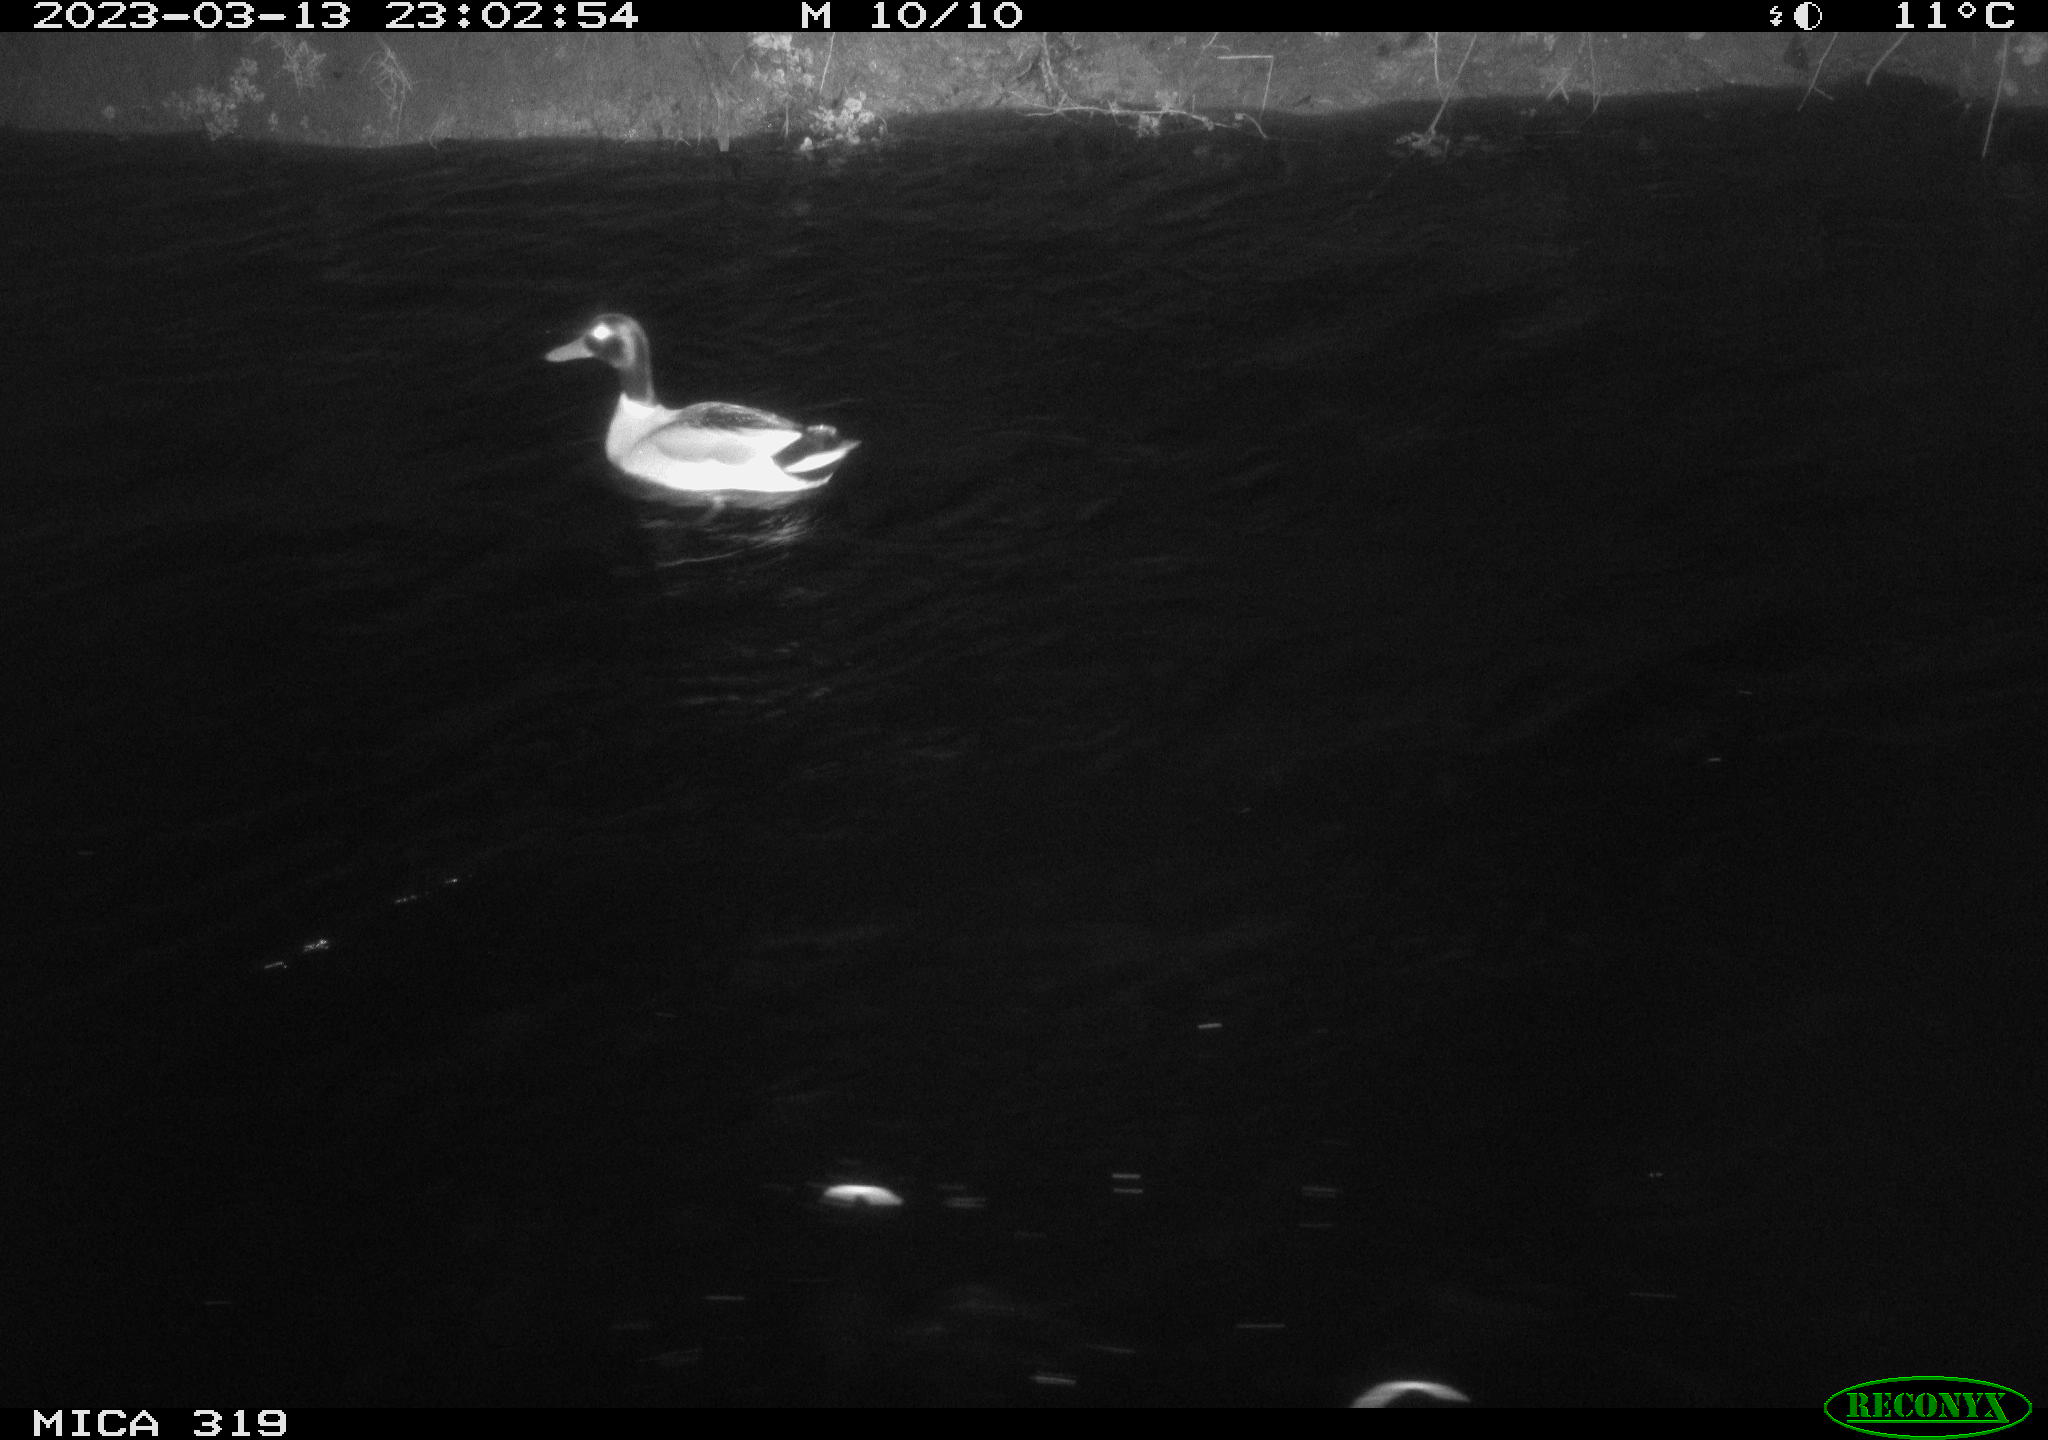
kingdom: Animalia
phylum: Chordata
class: Aves
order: Anseriformes
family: Anatidae
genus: Anas
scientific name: Anas
